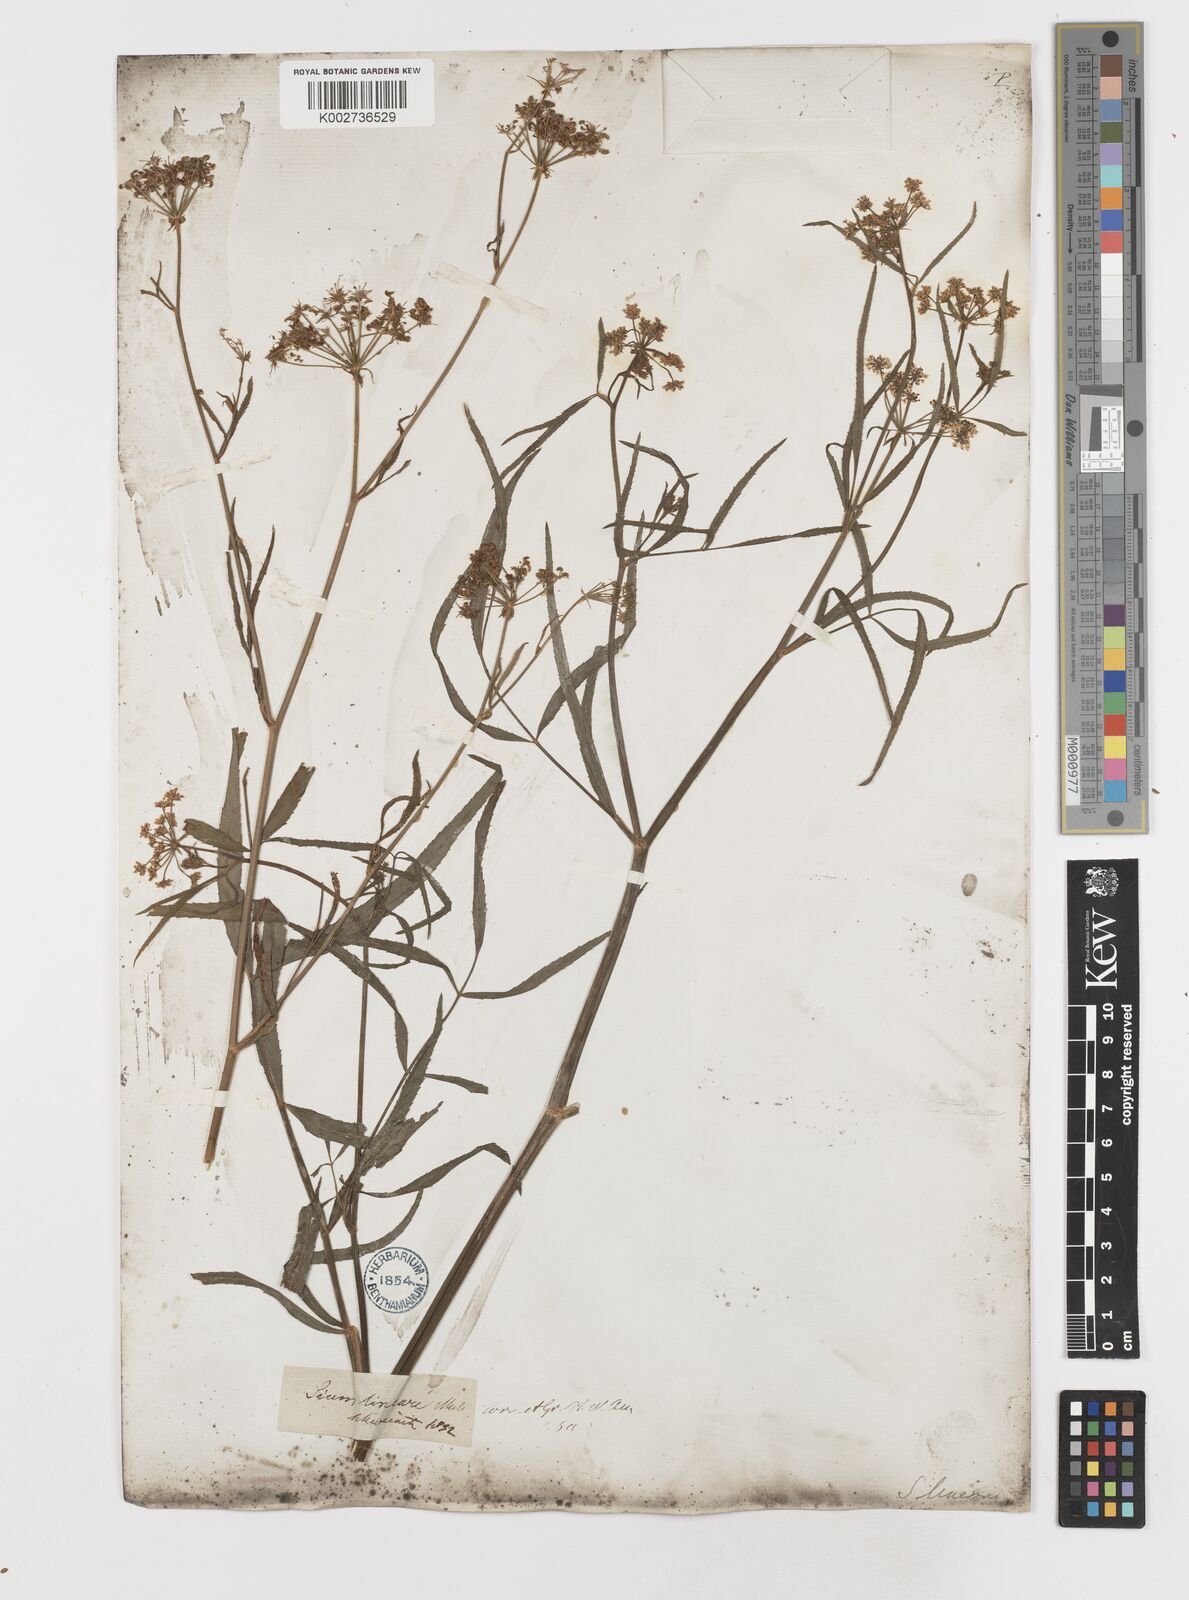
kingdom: Plantae
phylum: Tracheophyta
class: Magnoliopsida
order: Apiales
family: Apiaceae
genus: Sium
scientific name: Sium suave
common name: Hemlock water-parsnip
